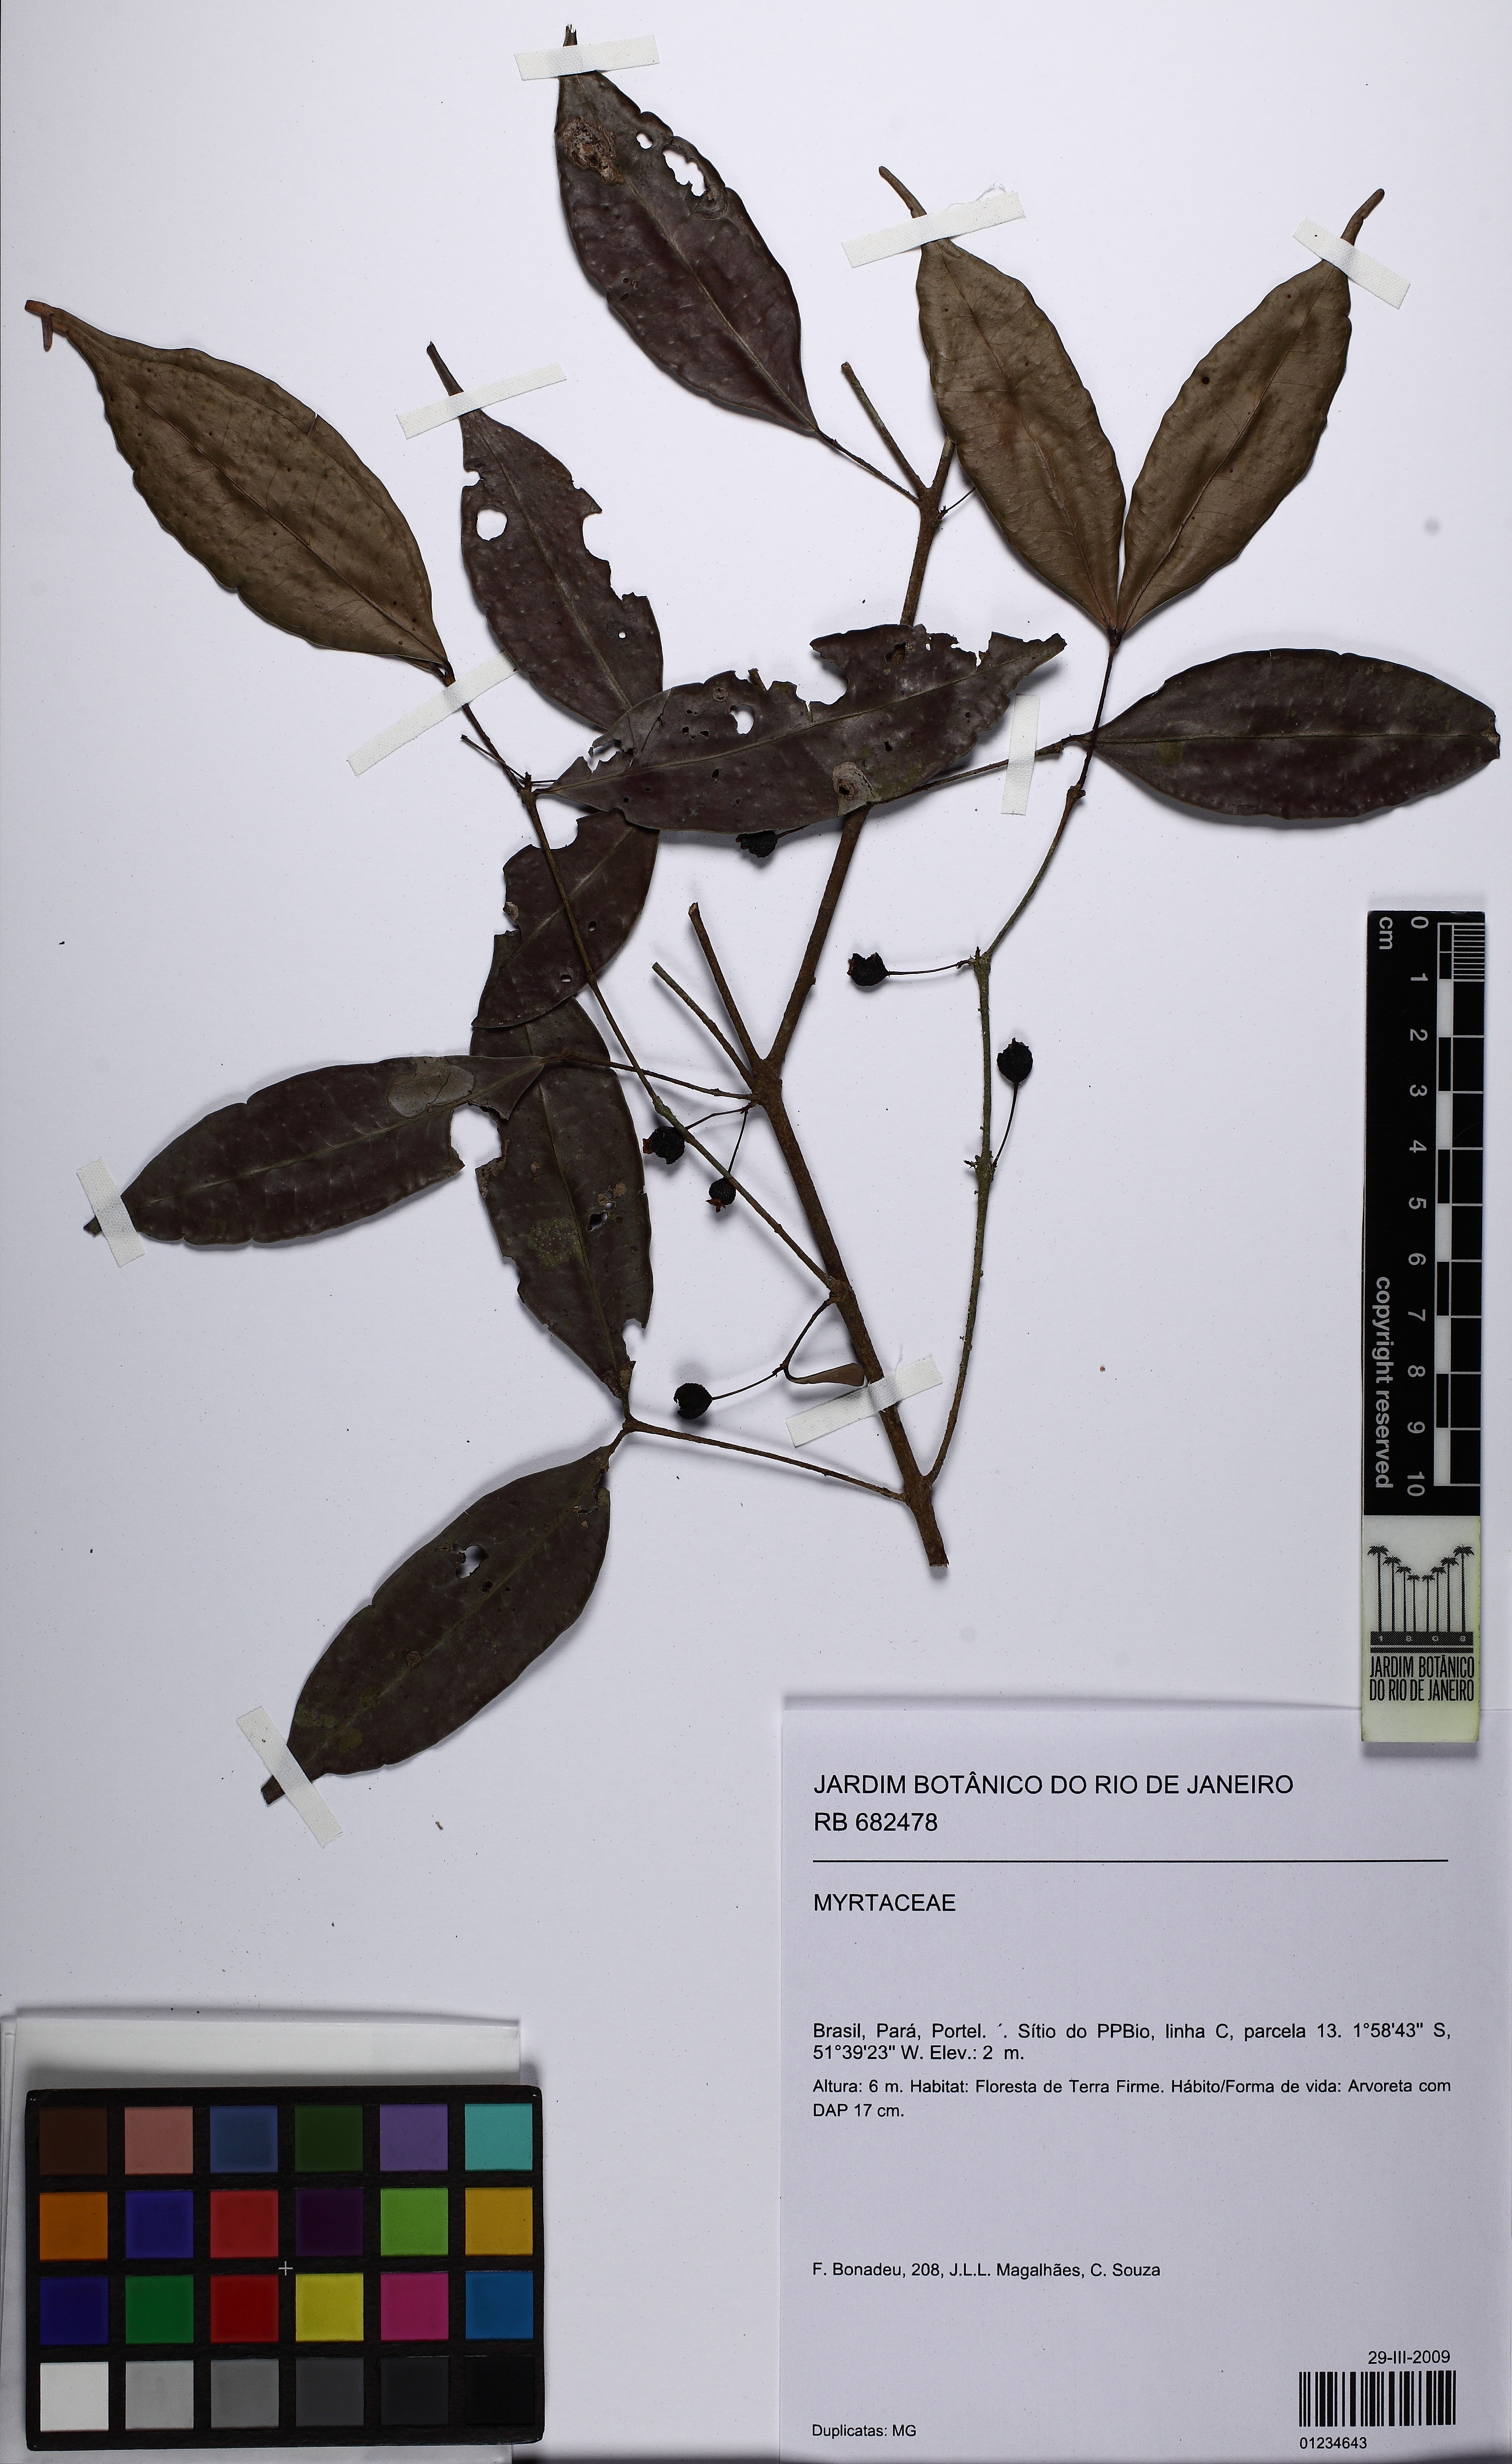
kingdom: Plantae
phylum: Tracheophyta
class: Magnoliopsida
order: Myrtales
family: Myrtaceae
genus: Eugenia
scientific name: Eugenia egensis
